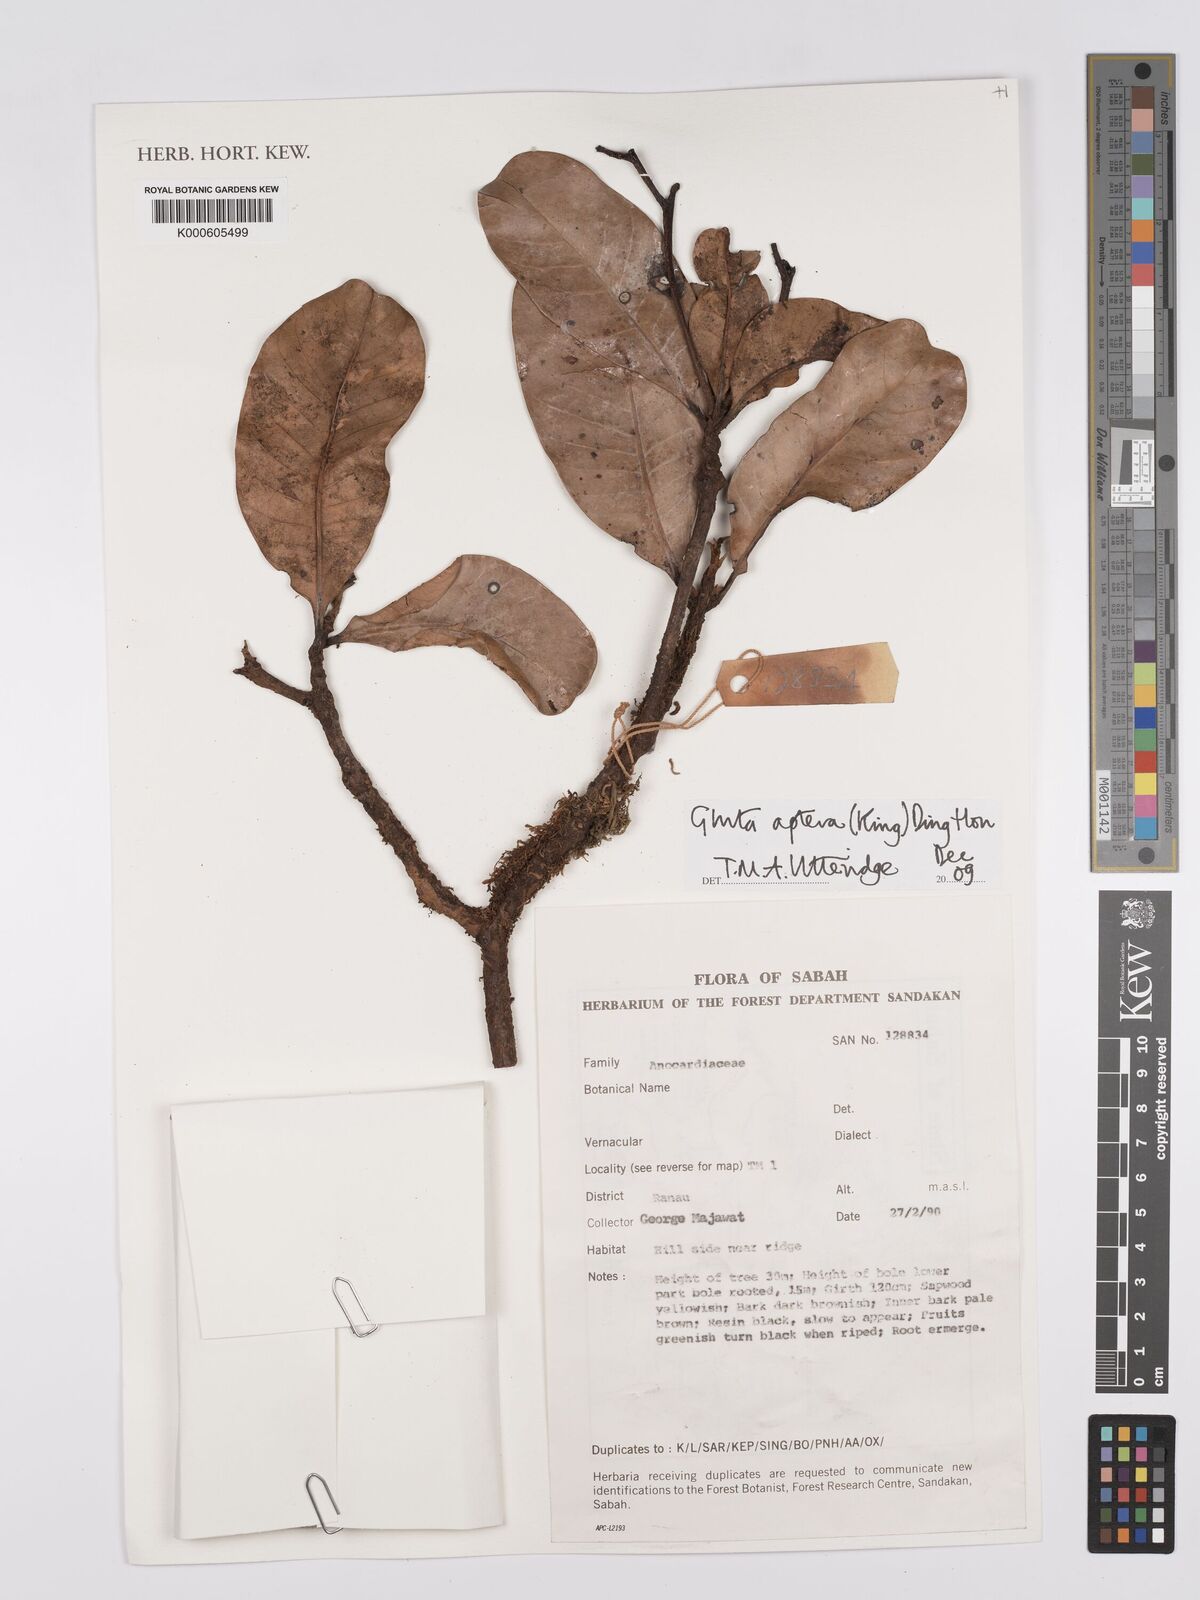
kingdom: Plantae
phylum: Tracheophyta
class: Magnoliopsida
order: Sapindales
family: Anacardiaceae
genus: Gluta
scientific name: Gluta aptera
